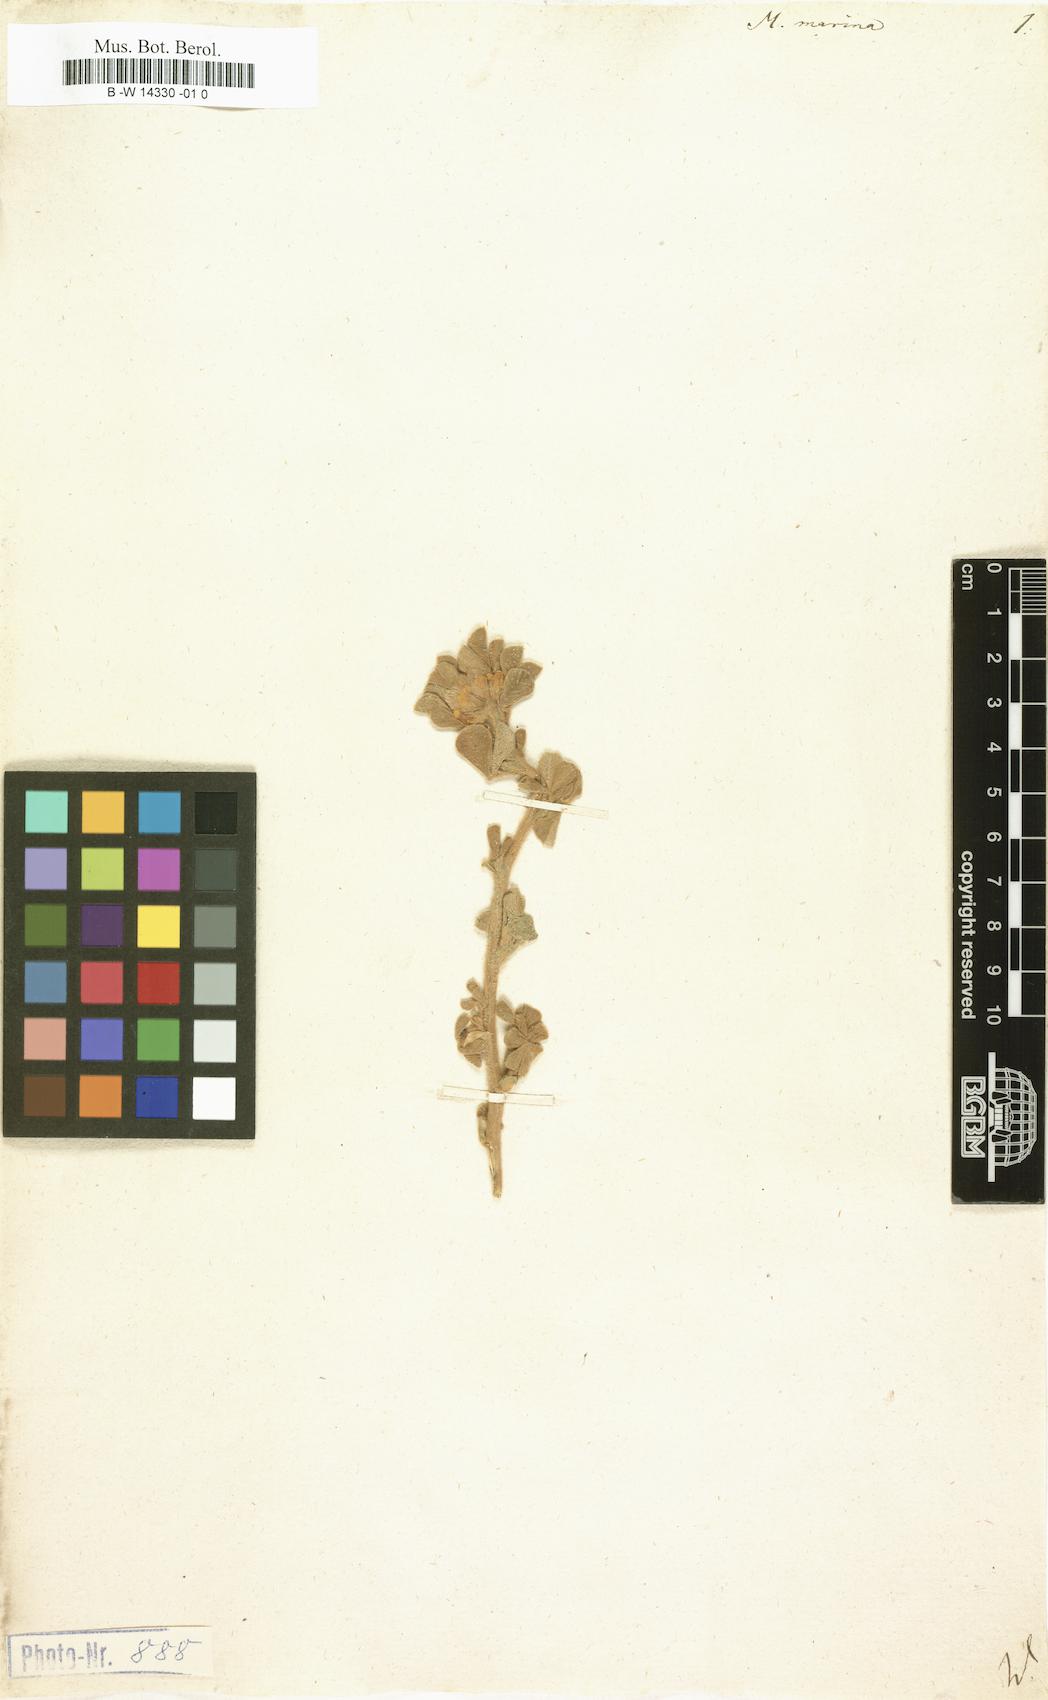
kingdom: Plantae
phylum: Tracheophyta
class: Magnoliopsida
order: Fabales
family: Fabaceae
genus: Medicago
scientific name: Medicago marina
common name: Sea medick
